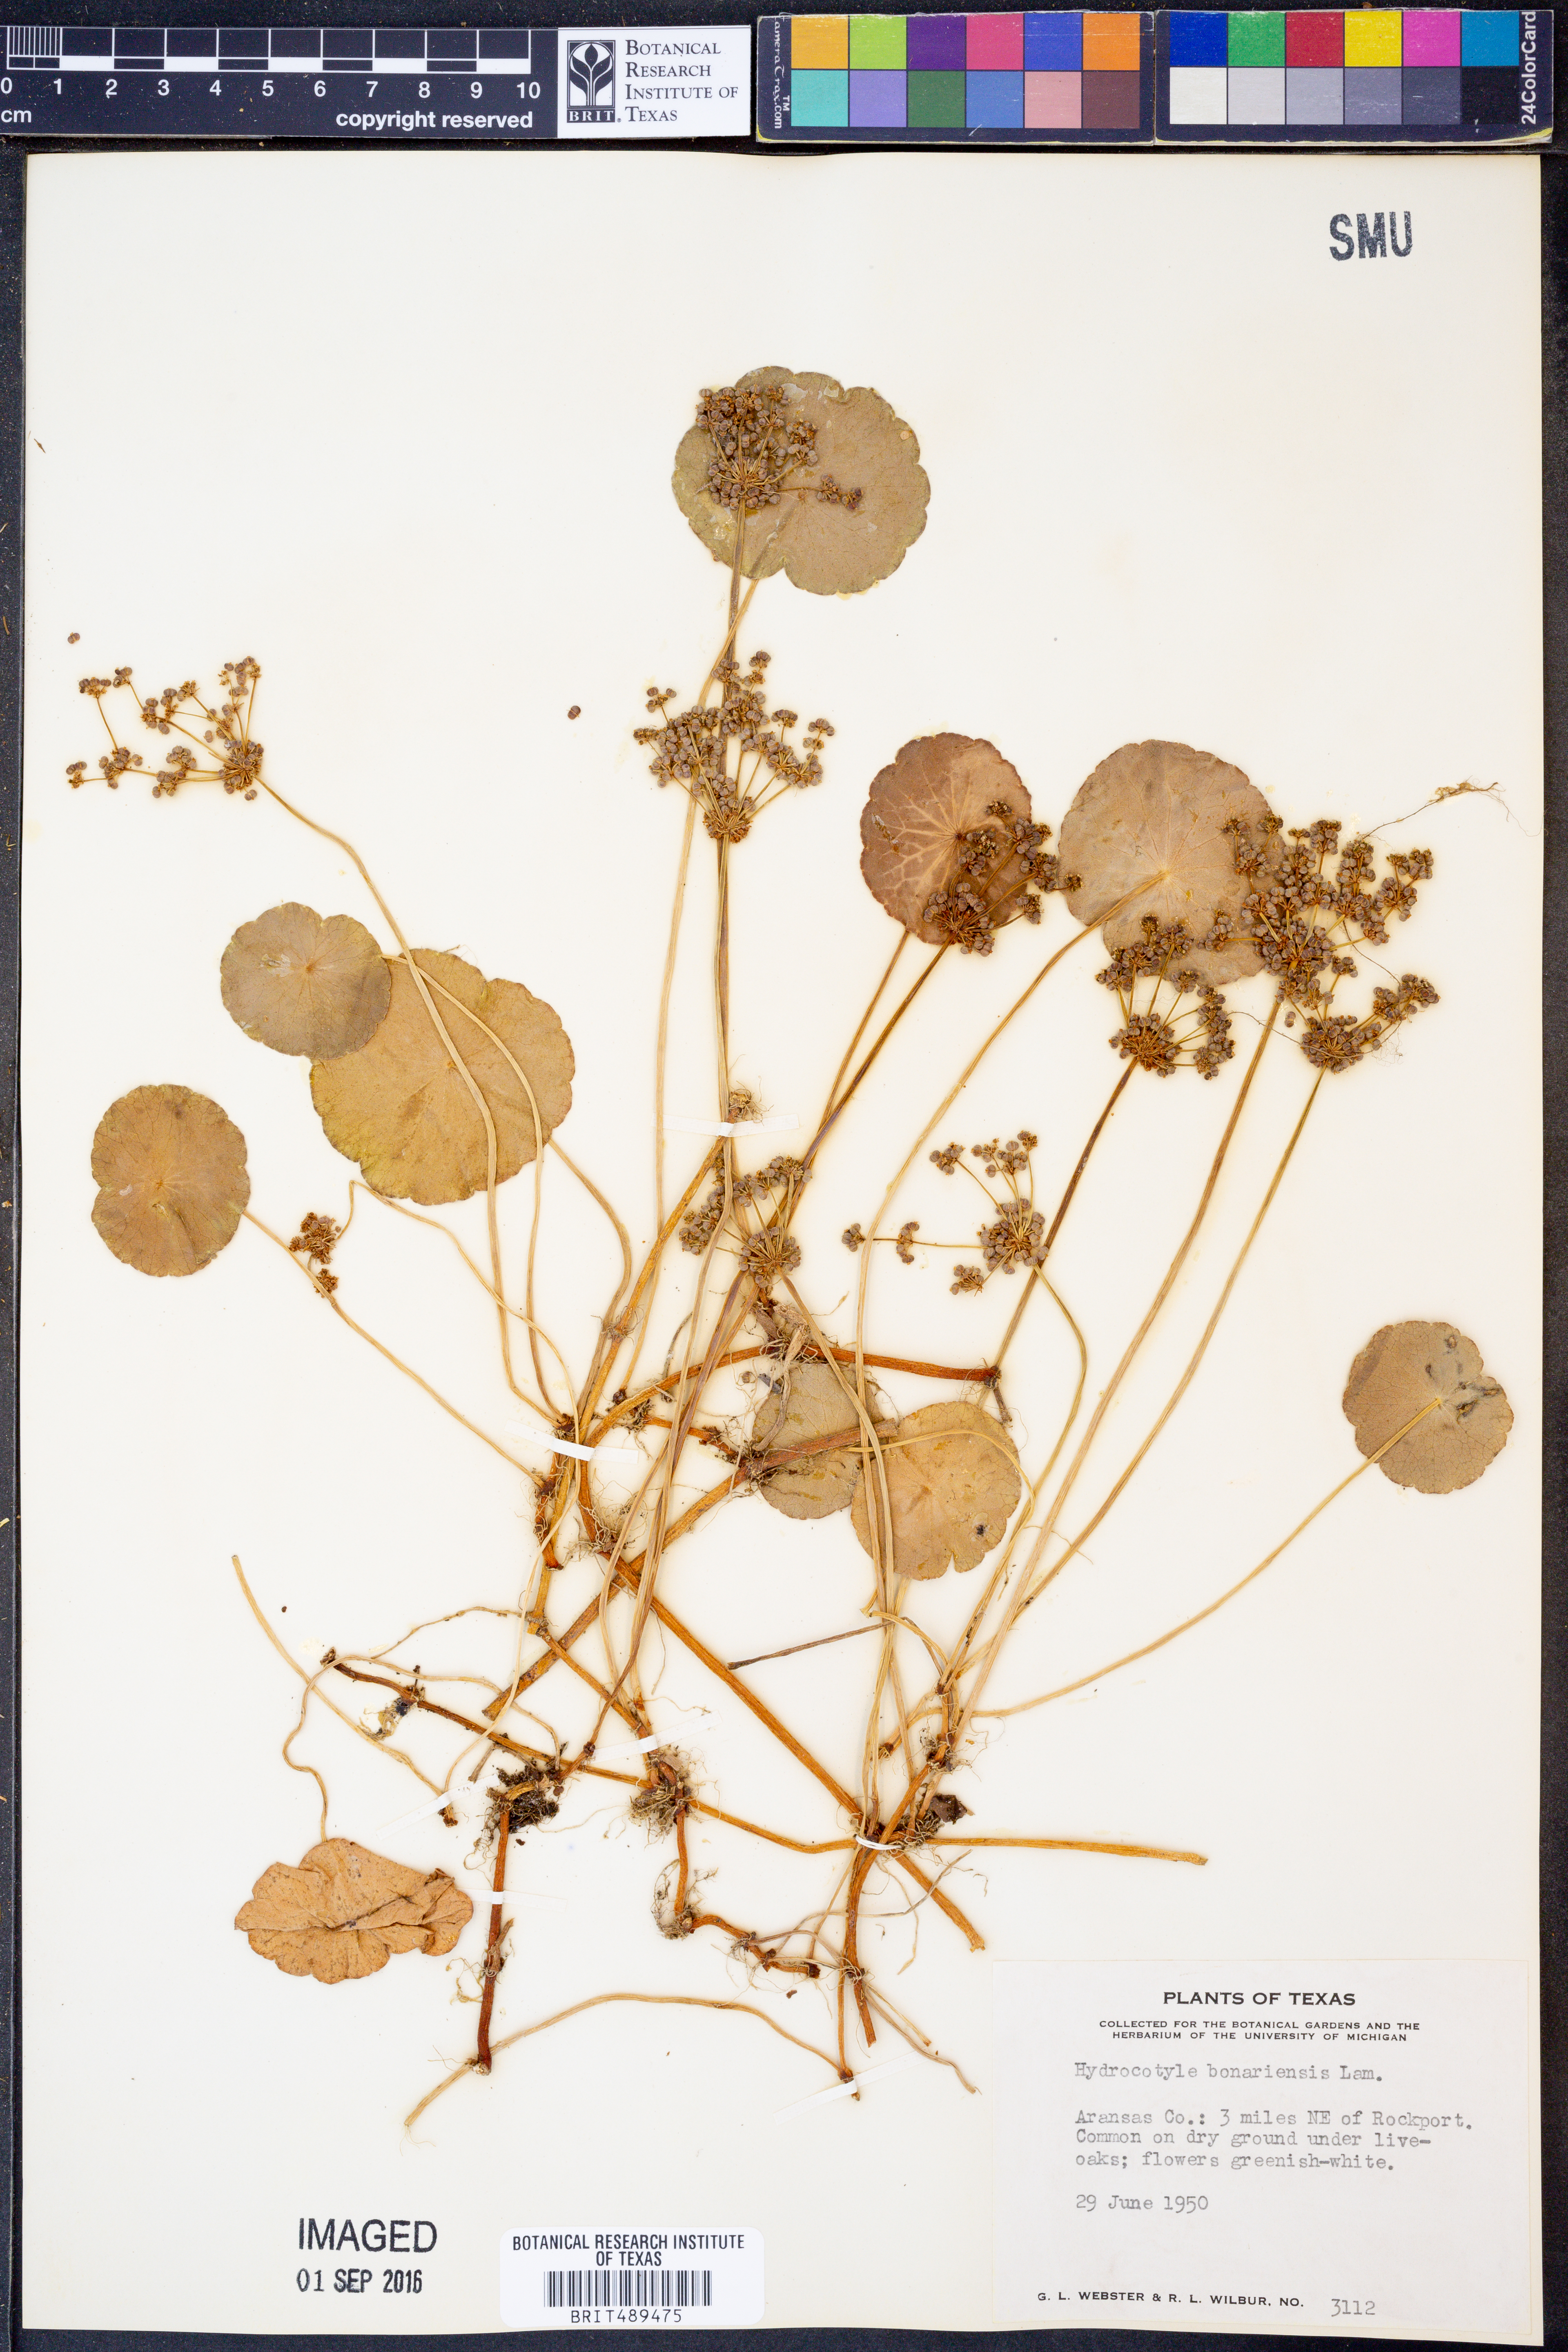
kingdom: Plantae
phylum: Tracheophyta
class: Magnoliopsida
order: Apiales
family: Araliaceae
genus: Hydrocotyle
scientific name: Hydrocotyle bonariensis
